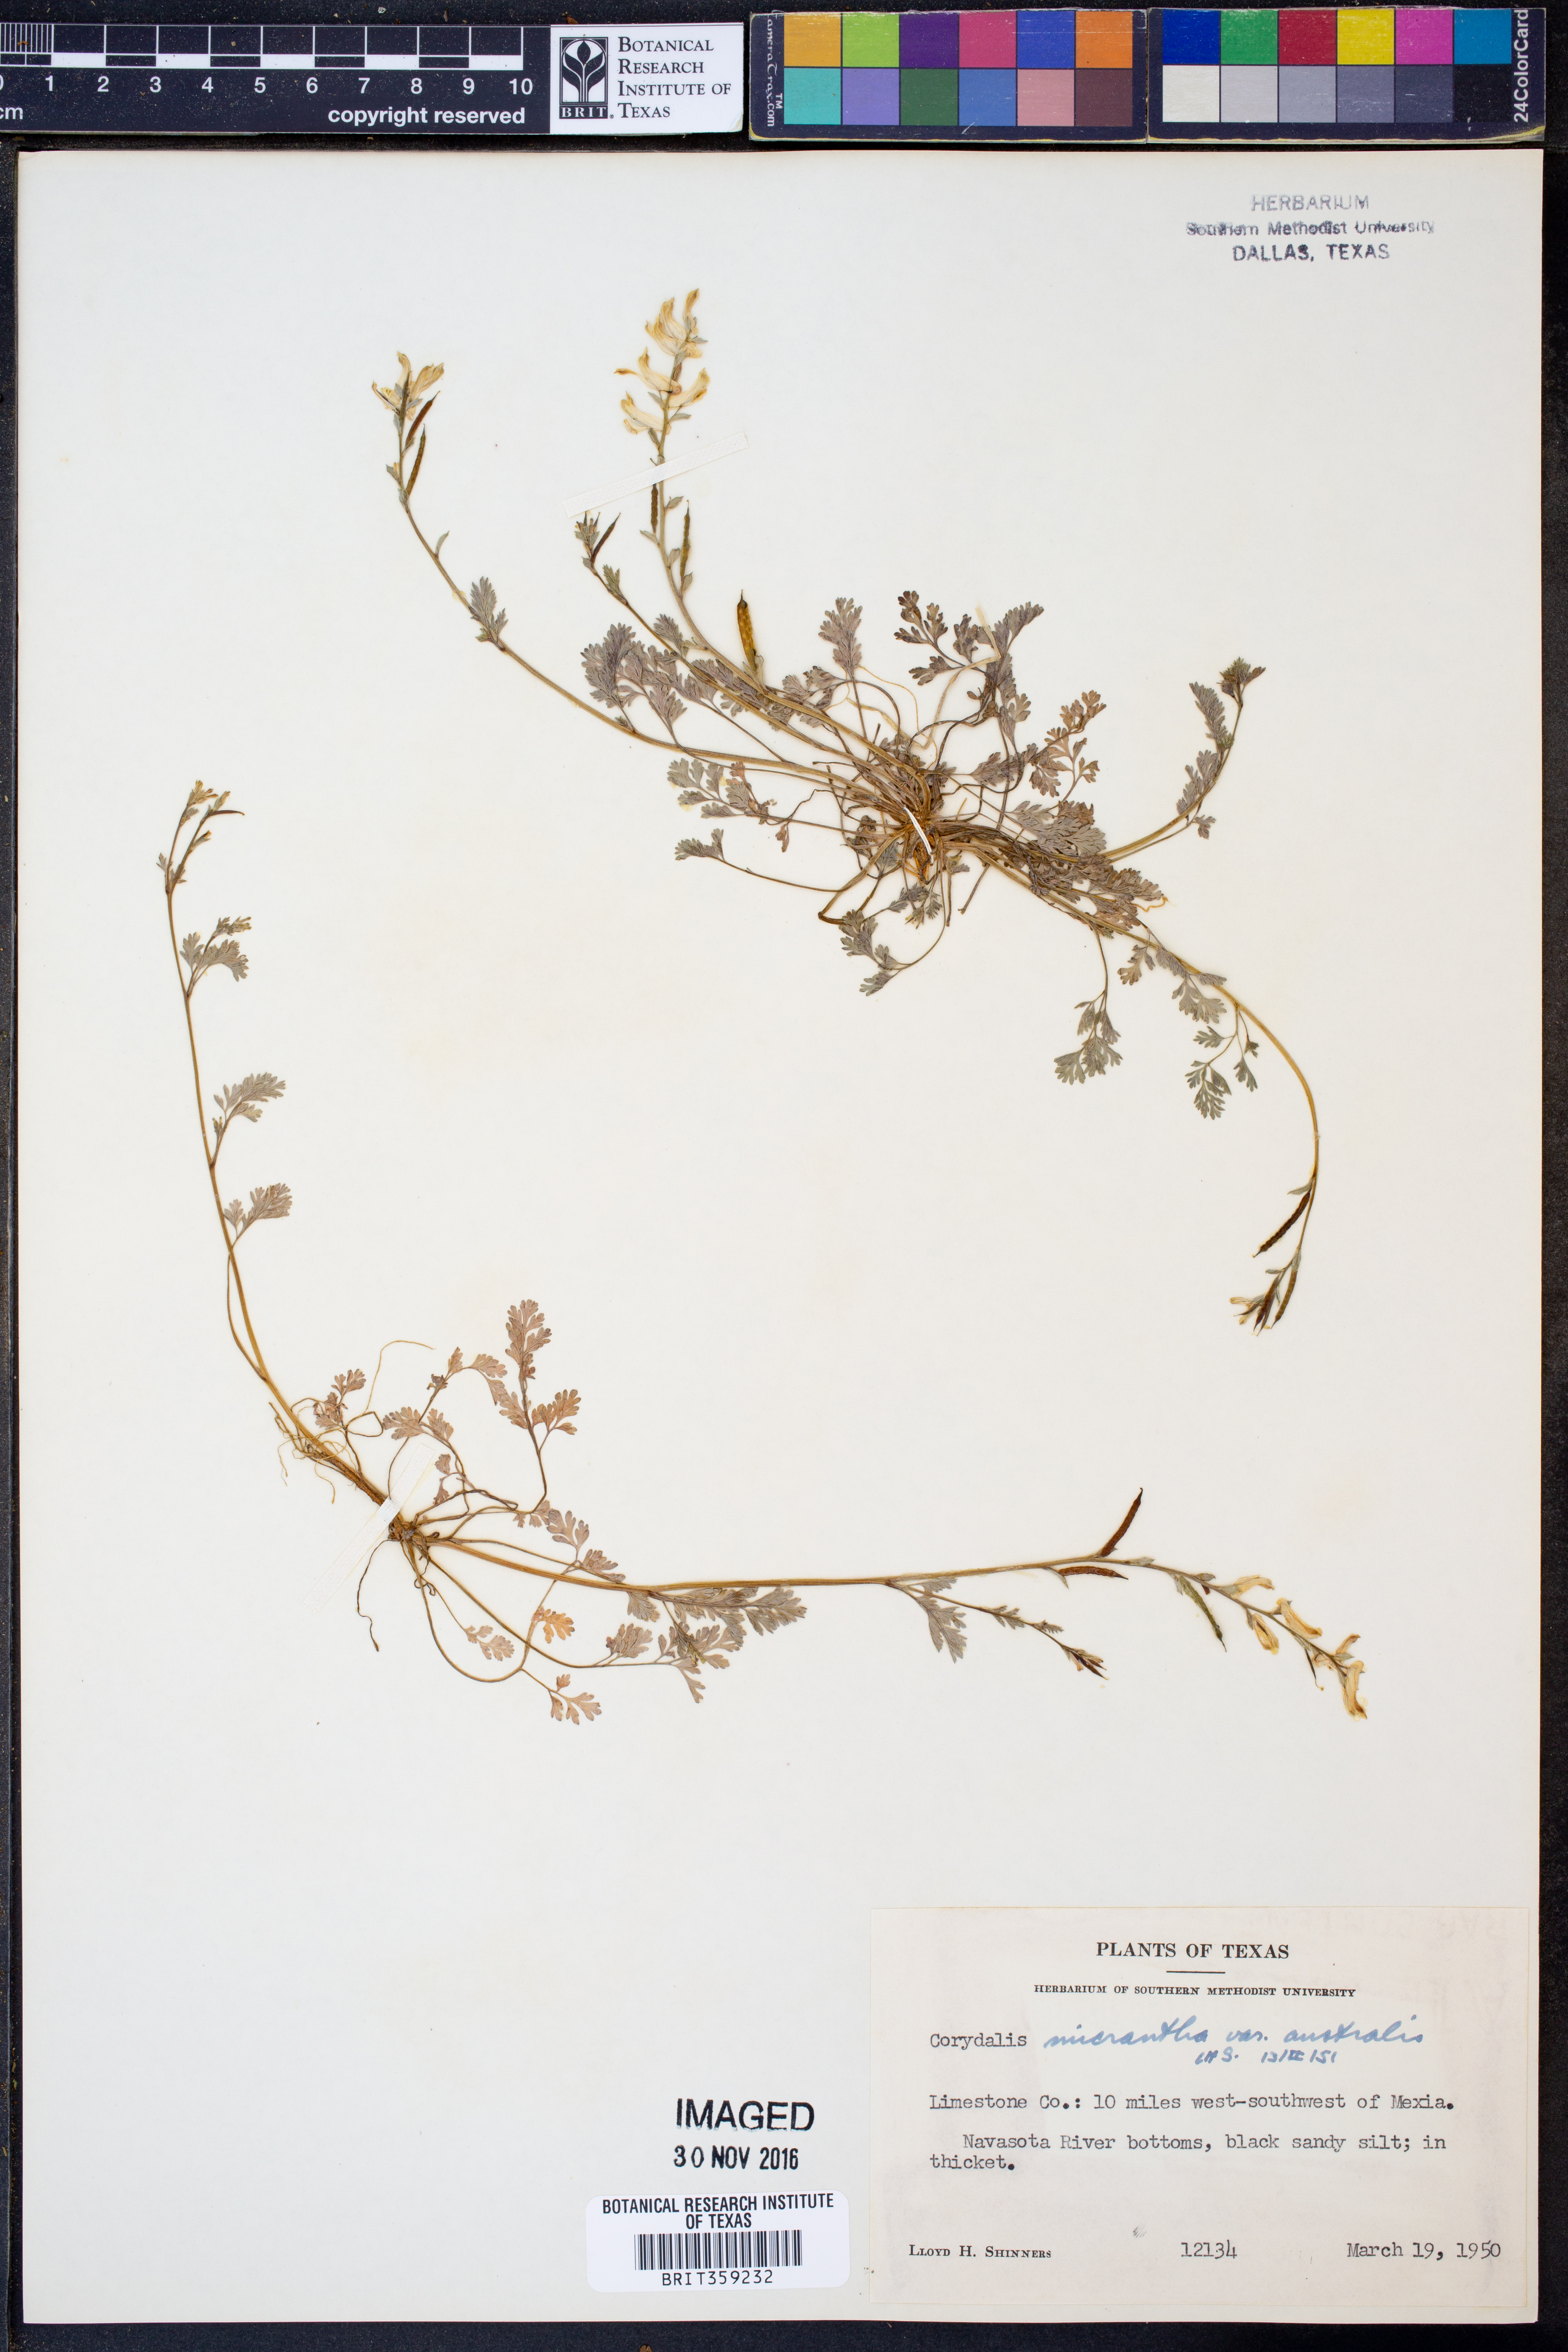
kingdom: Plantae
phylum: Tracheophyta
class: Magnoliopsida
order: Ranunculales
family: Papaveraceae
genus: Corydalis
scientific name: Corydalis micrantha
